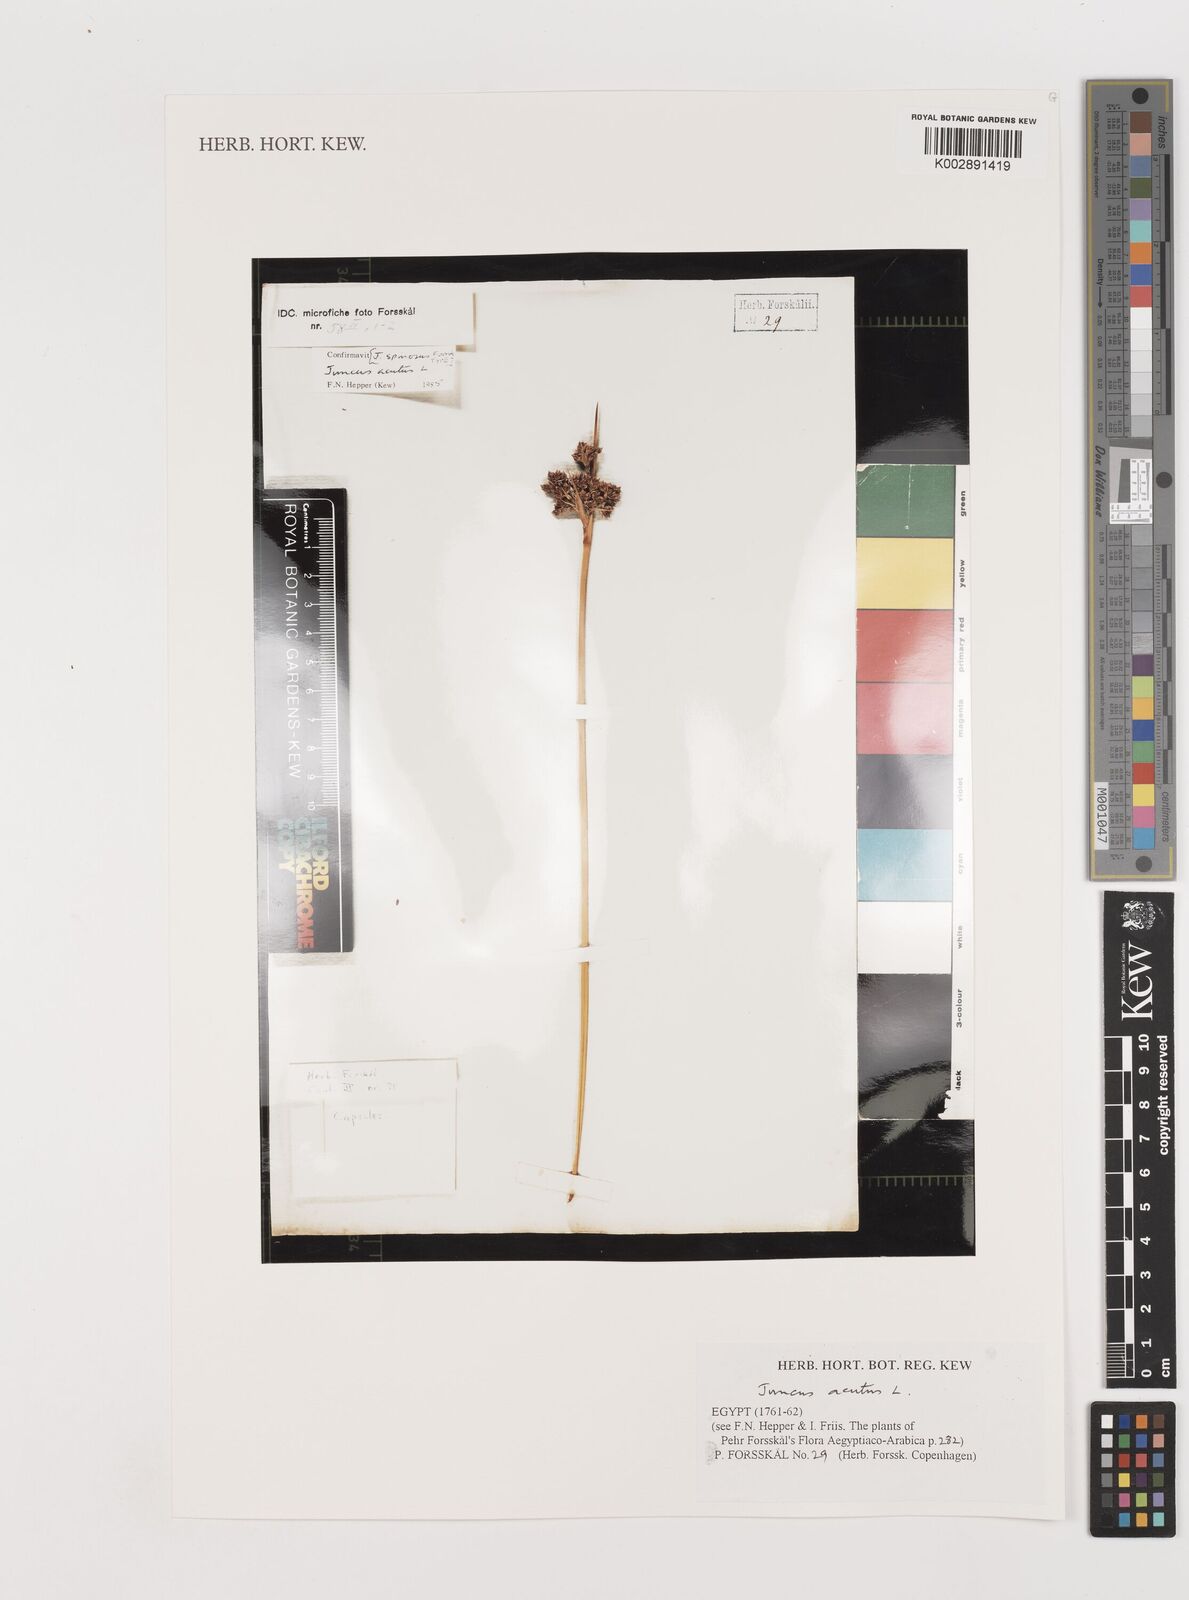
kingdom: Plantae
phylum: Tracheophyta
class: Liliopsida
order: Poales
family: Juncaceae
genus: Juncus
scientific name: Juncus acutus
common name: Sharp rush
